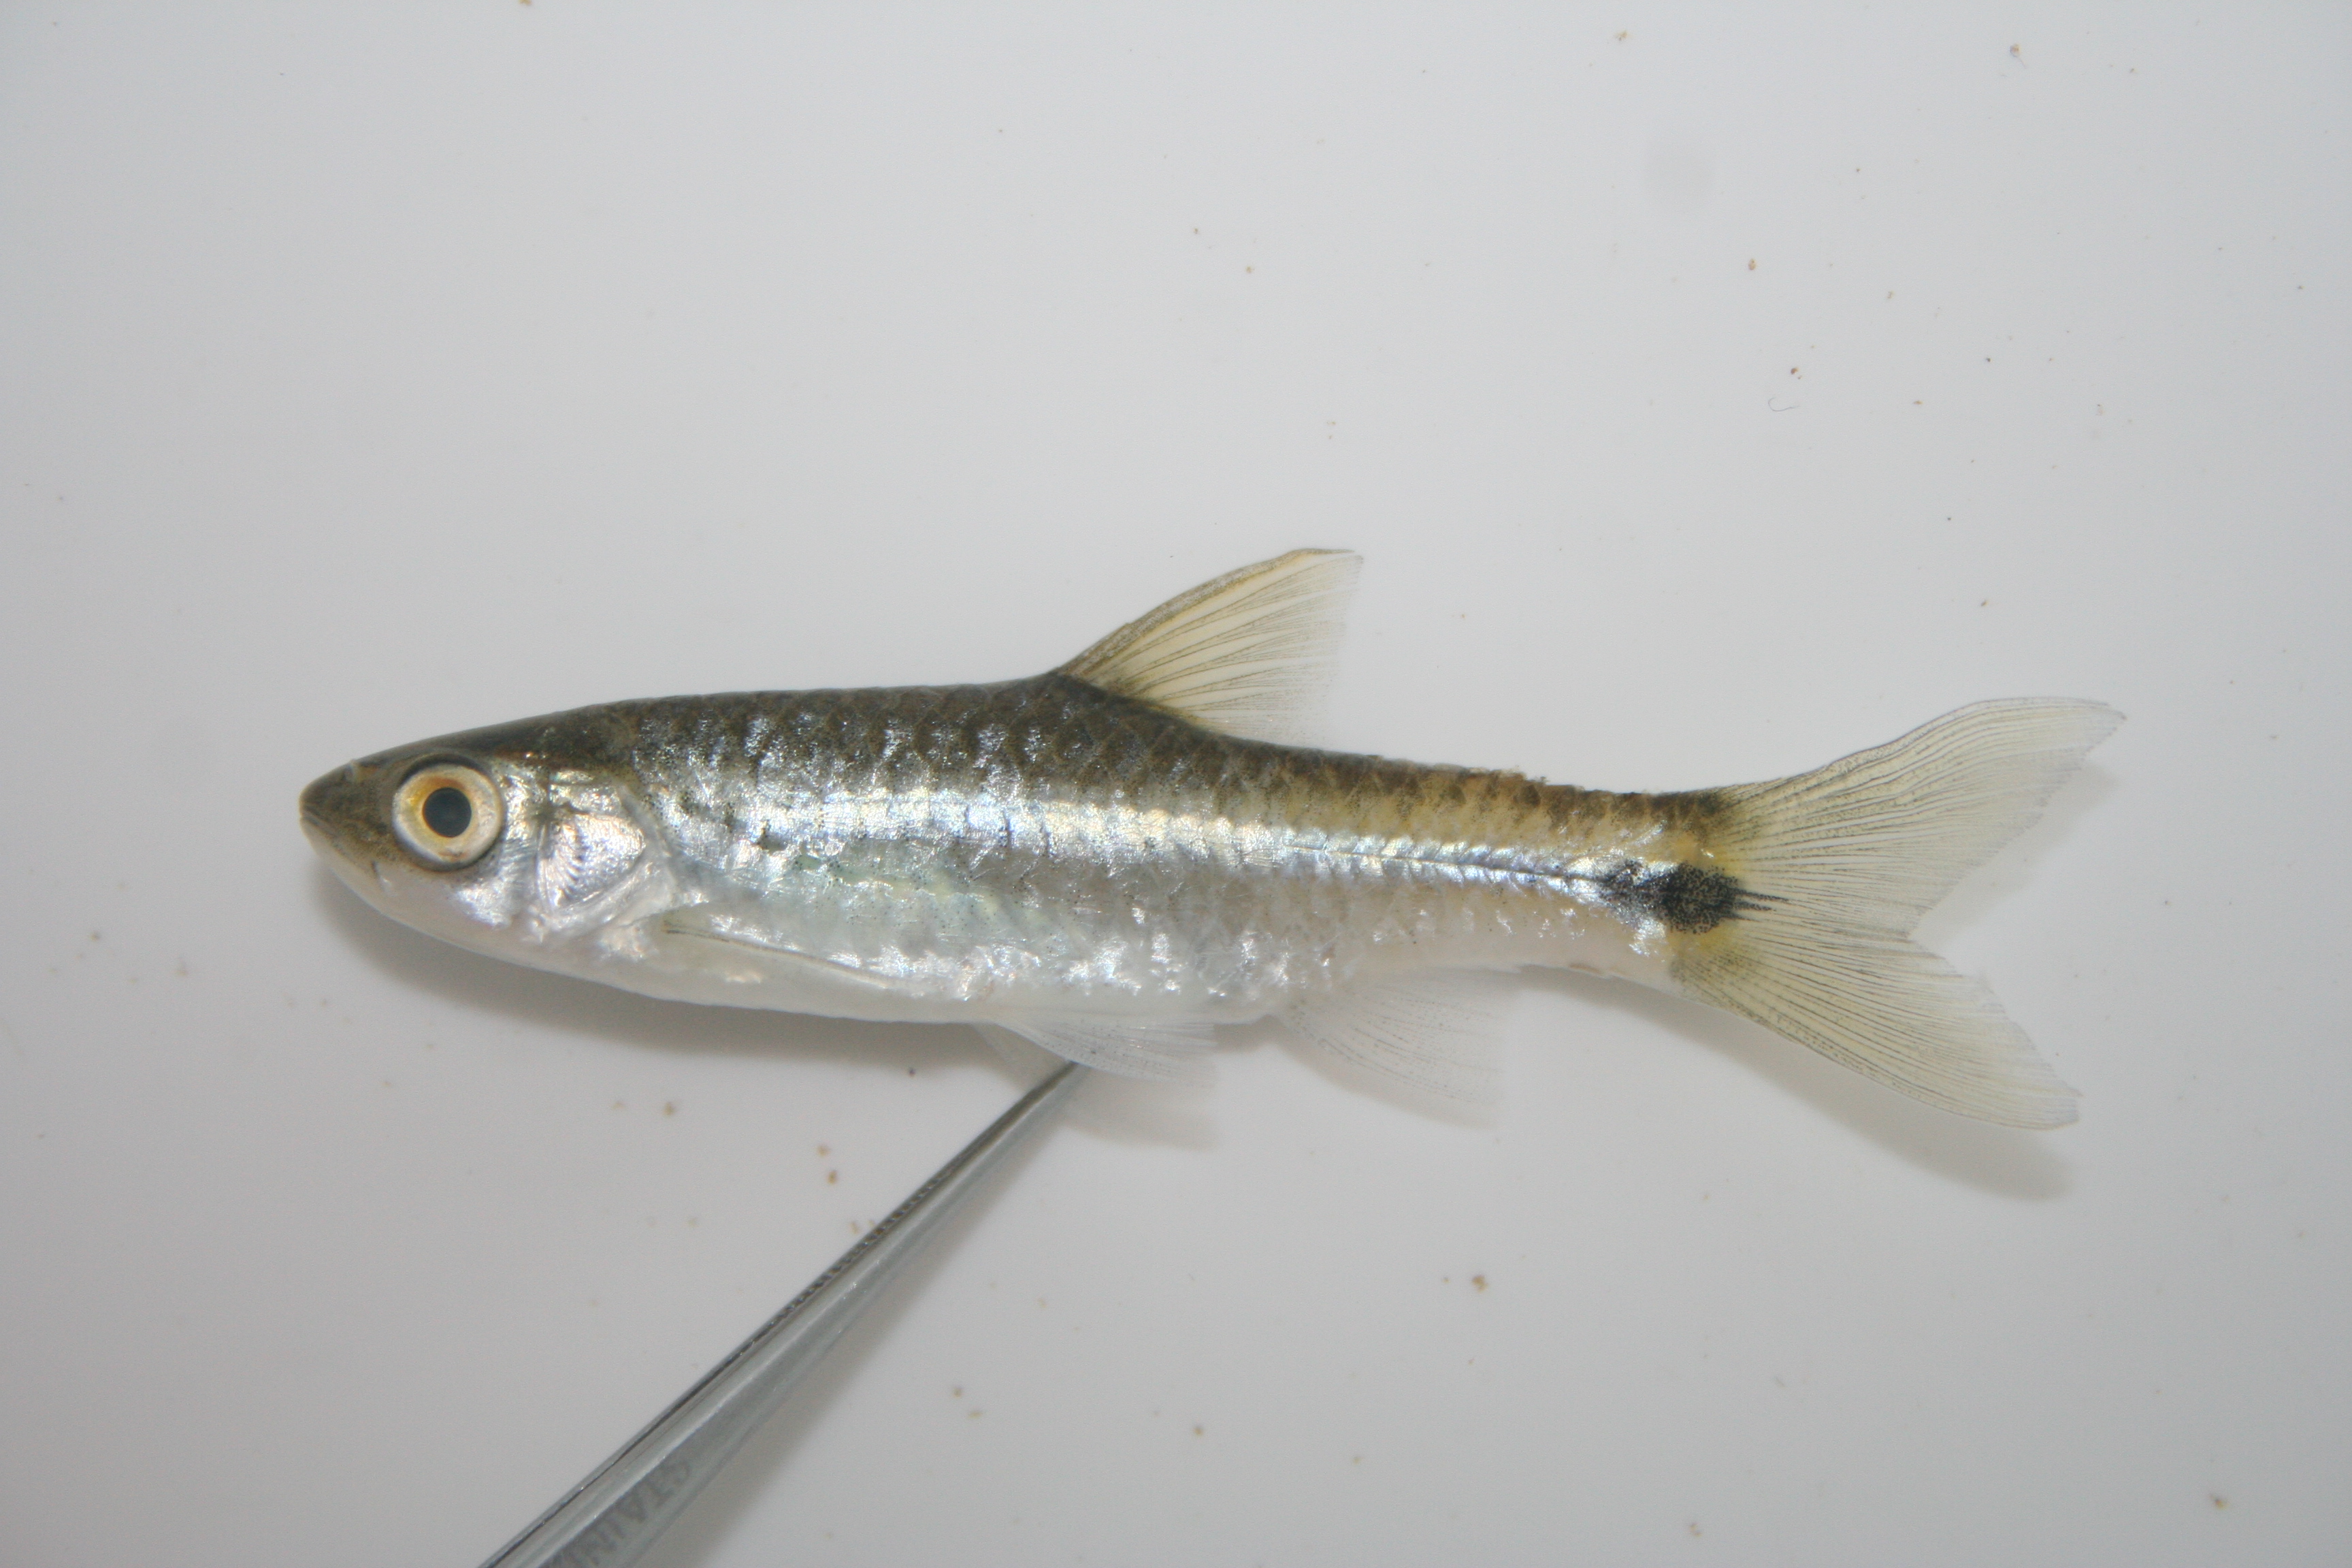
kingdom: Animalia
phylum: Chordata
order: Cypriniformes
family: Cyprinidae
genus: Barbus
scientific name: Barbus
